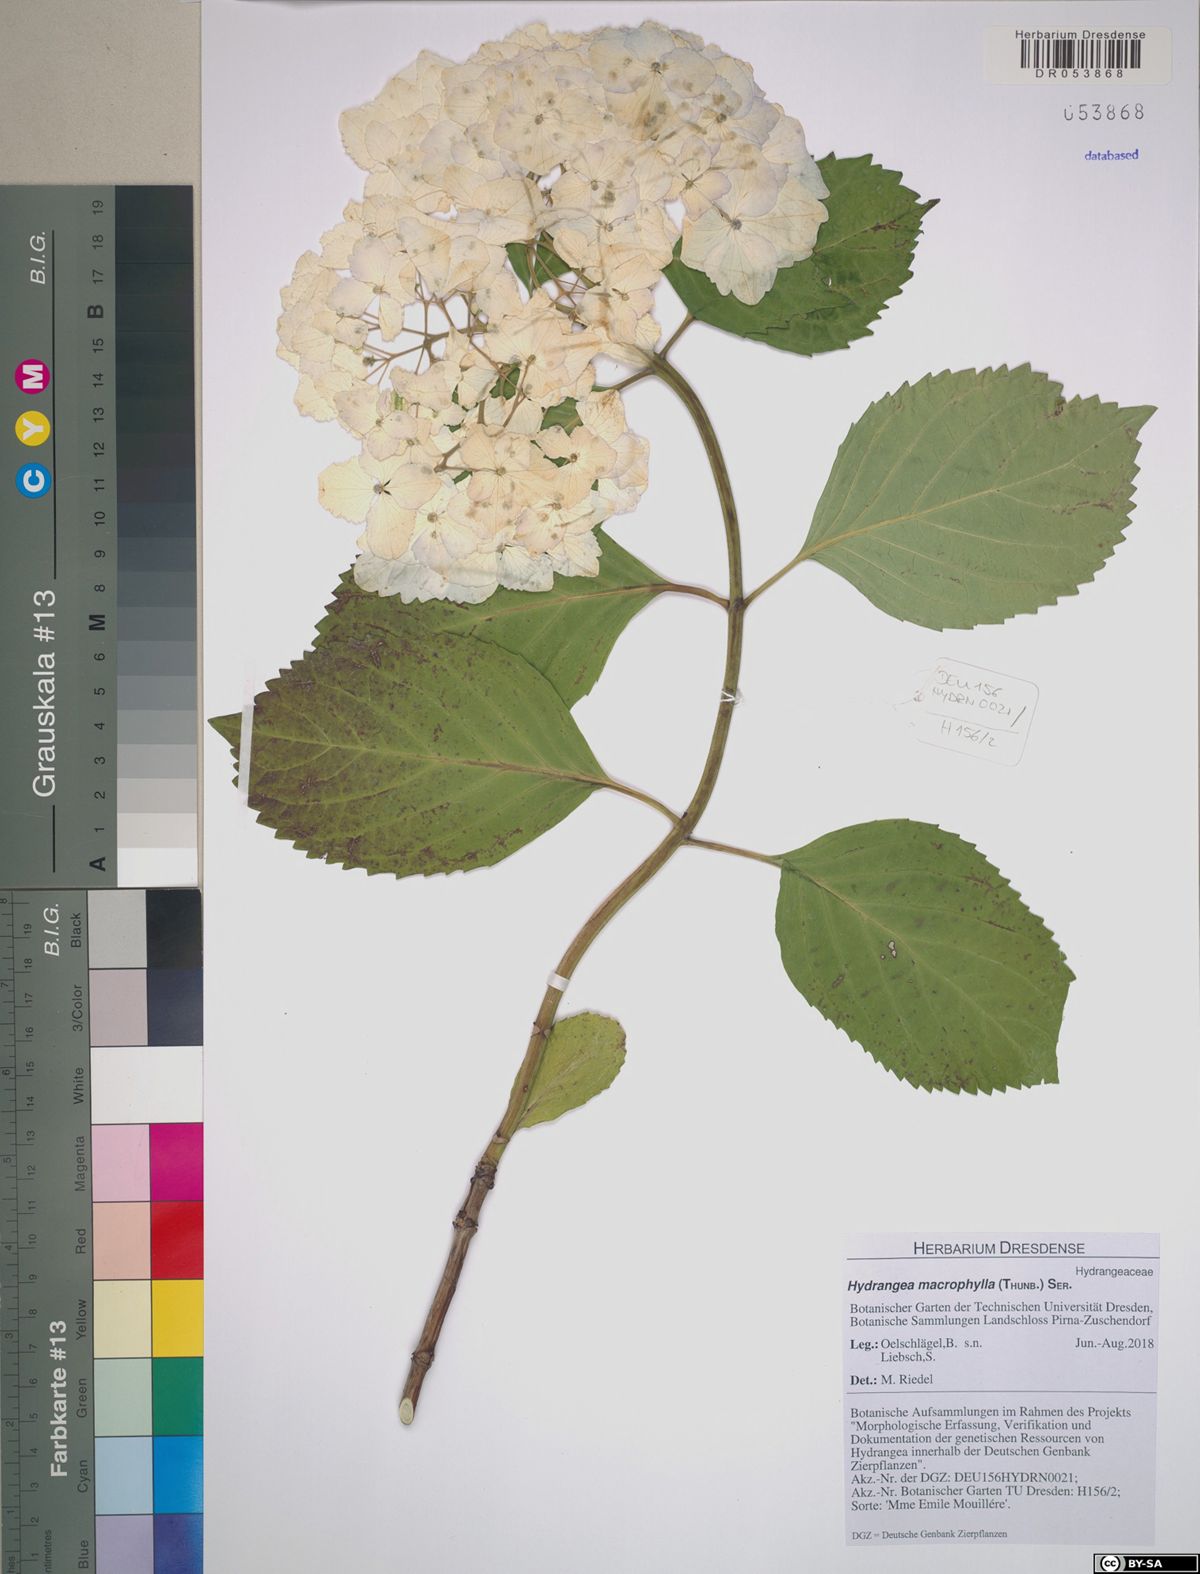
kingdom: Plantae
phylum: Tracheophyta
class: Magnoliopsida
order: Cornales
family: Hydrangeaceae
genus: Hydrangea
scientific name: Hydrangea macrophylla
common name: Hydrangea
